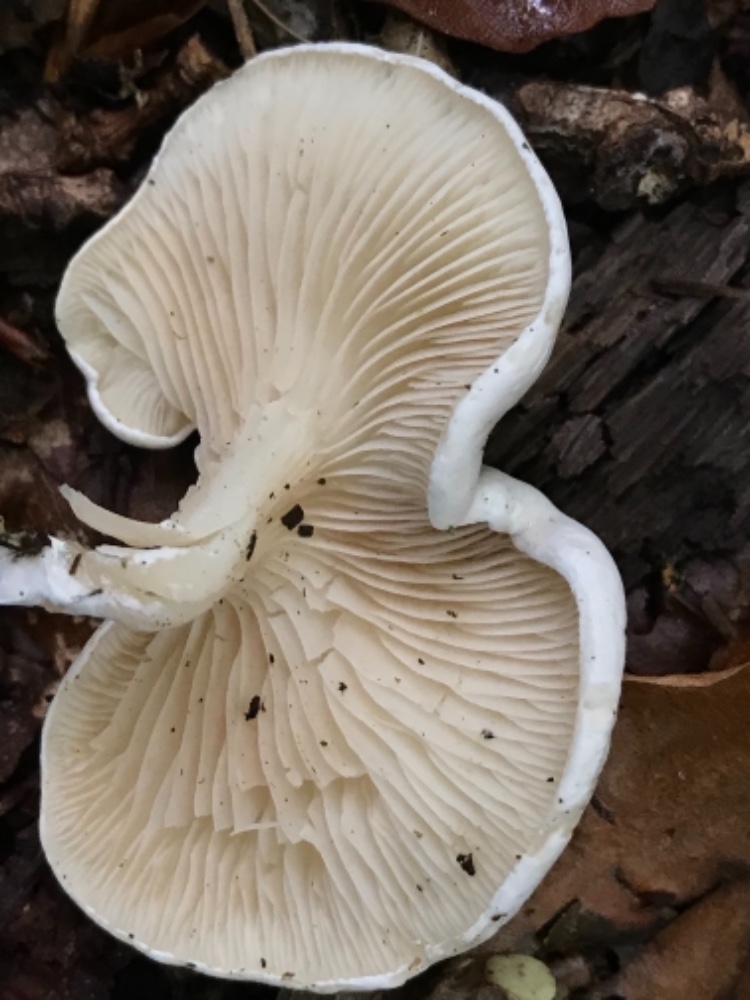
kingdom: Fungi
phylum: Basidiomycota
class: Agaricomycetes
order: Agaricales
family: Entolomataceae
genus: Clitopilus
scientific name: Clitopilus prunulus
